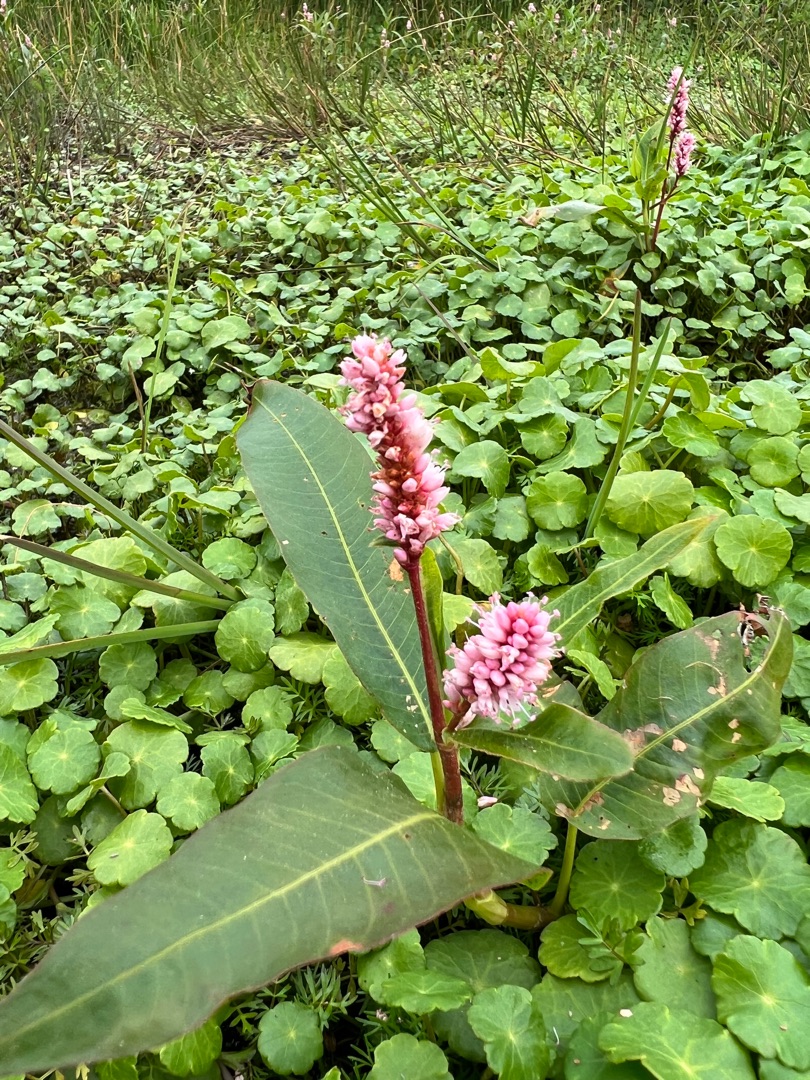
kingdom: Plantae
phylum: Tracheophyta
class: Magnoliopsida
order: Caryophyllales
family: Polygonaceae
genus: Persicaria
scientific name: Persicaria amphibia
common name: Vand-pileurt
